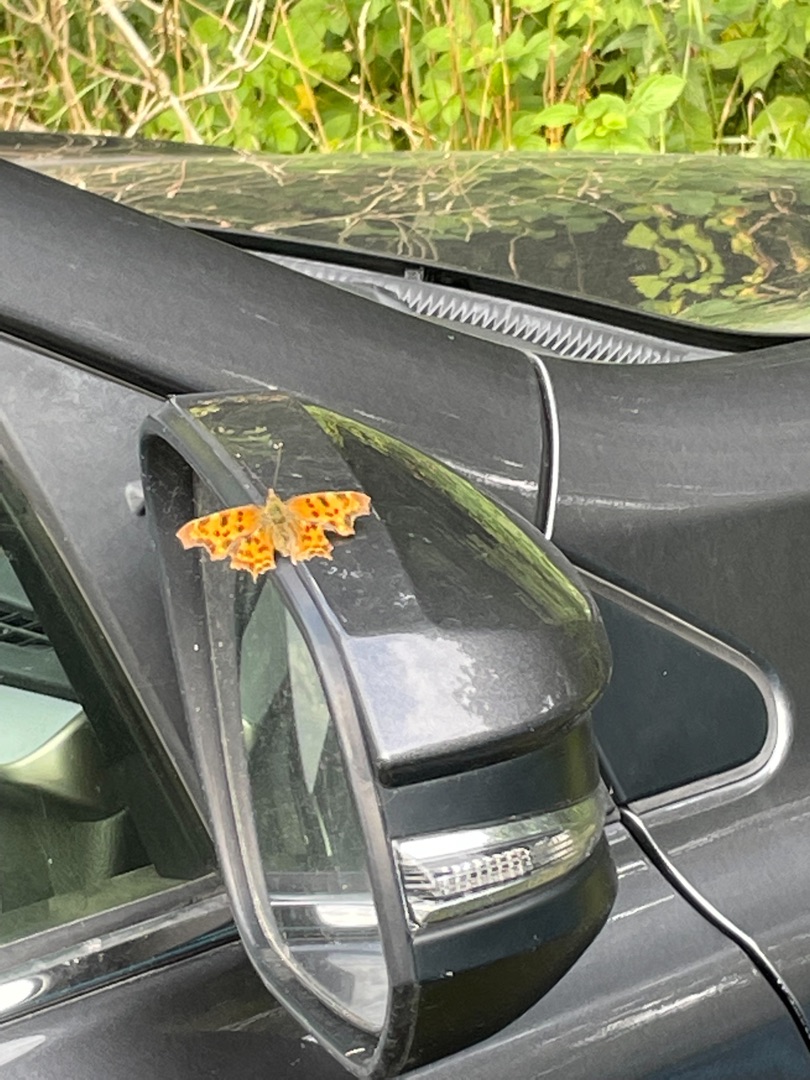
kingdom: Animalia
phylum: Arthropoda
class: Insecta
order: Lepidoptera
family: Nymphalidae
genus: Polygonia
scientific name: Polygonia c-album
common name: Det hvide C
